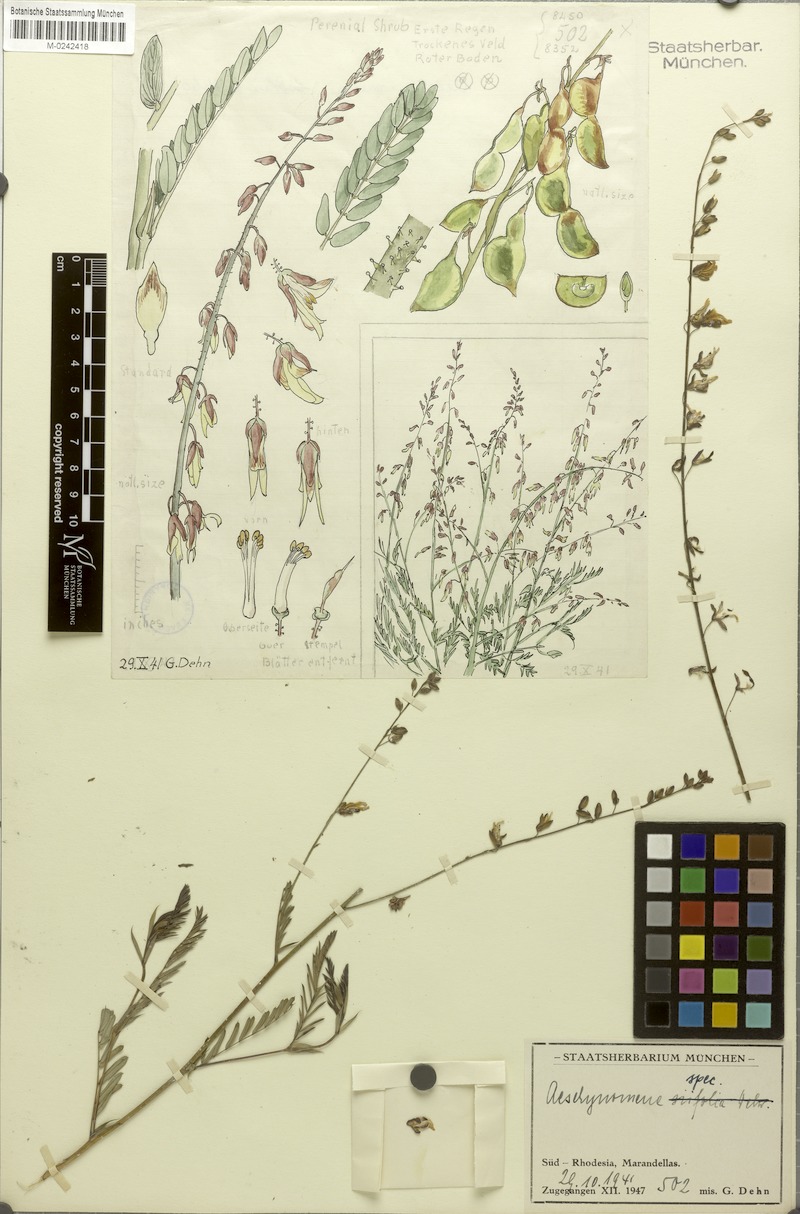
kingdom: Plantae
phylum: Tracheophyta
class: Magnoliopsida
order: Fabales
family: Fabaceae
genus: Aeschynomene
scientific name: Aeschynomene
